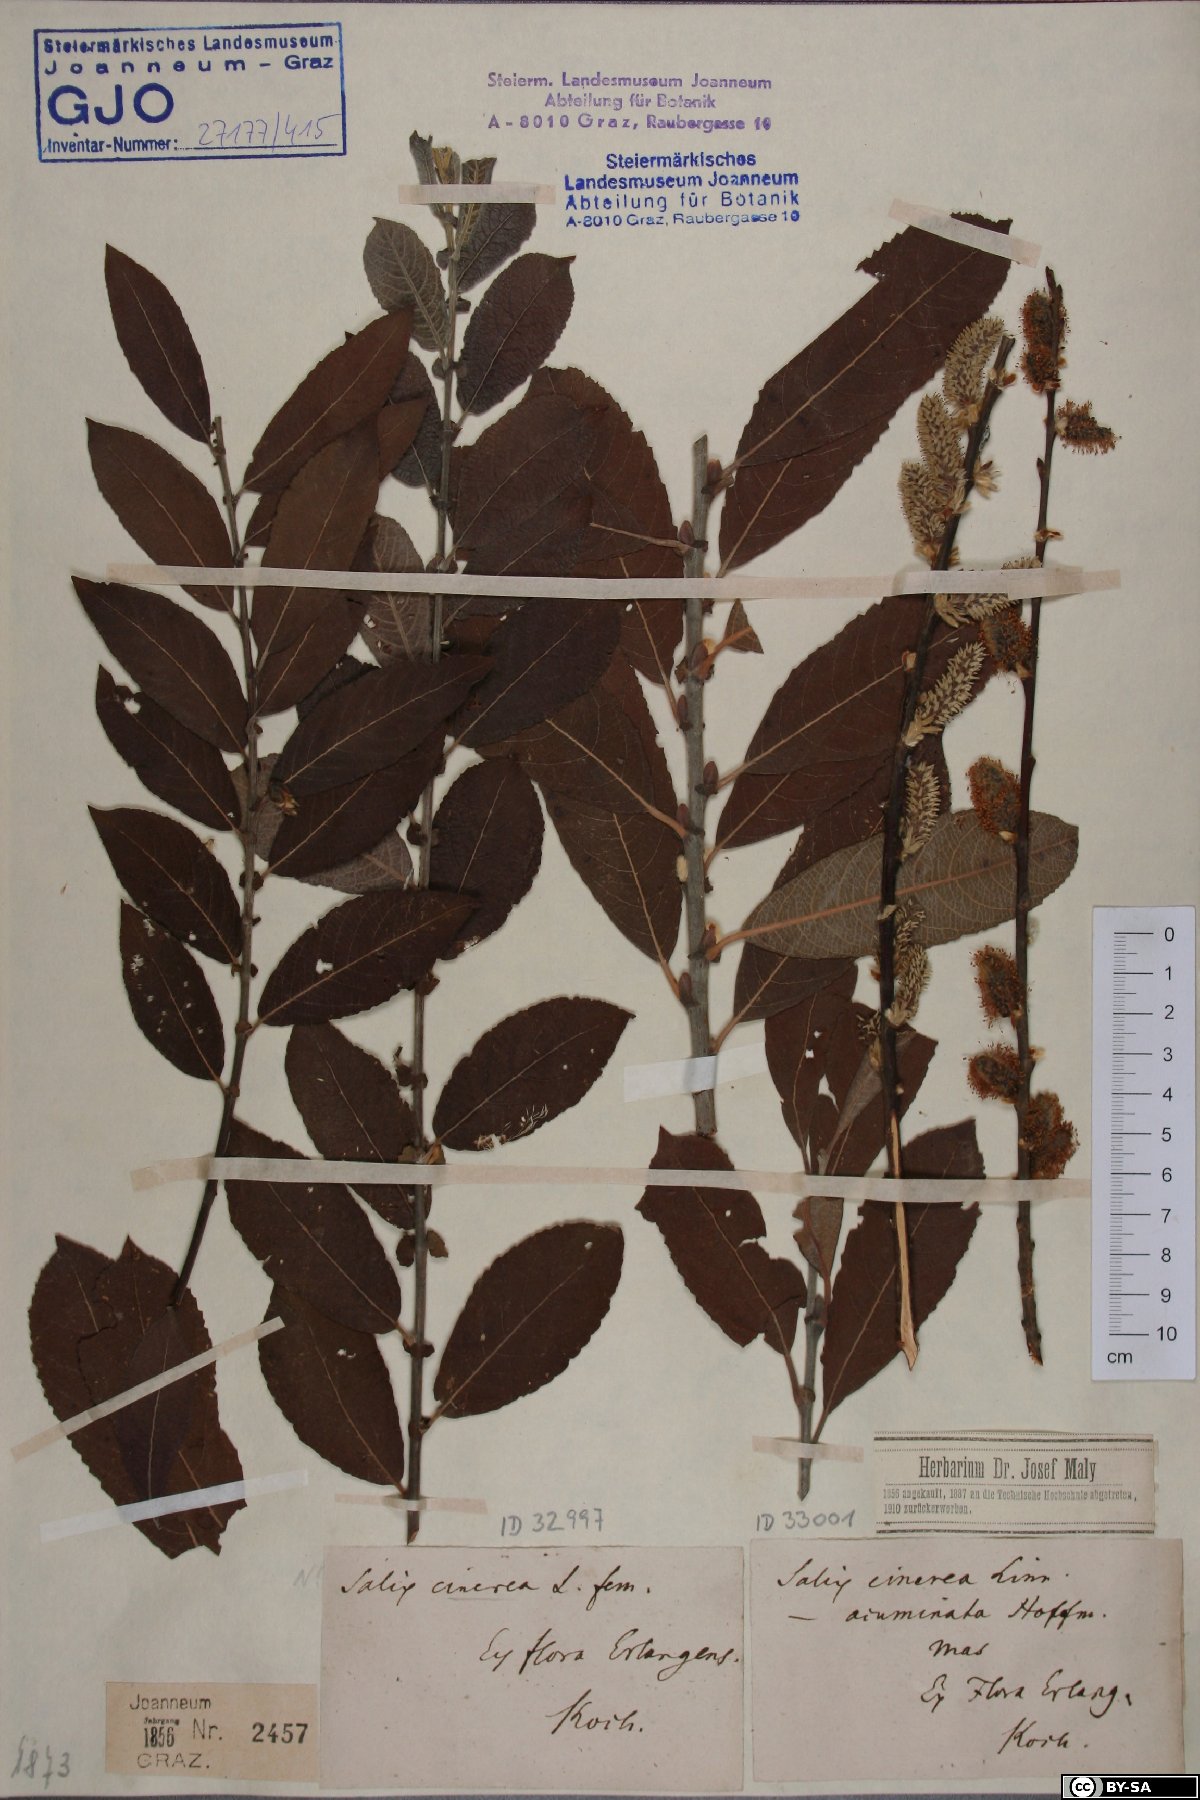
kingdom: Plantae
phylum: Tracheophyta
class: Magnoliopsida
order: Malpighiales
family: Salicaceae
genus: Salix
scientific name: Salix cinerea
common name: Common sallow
